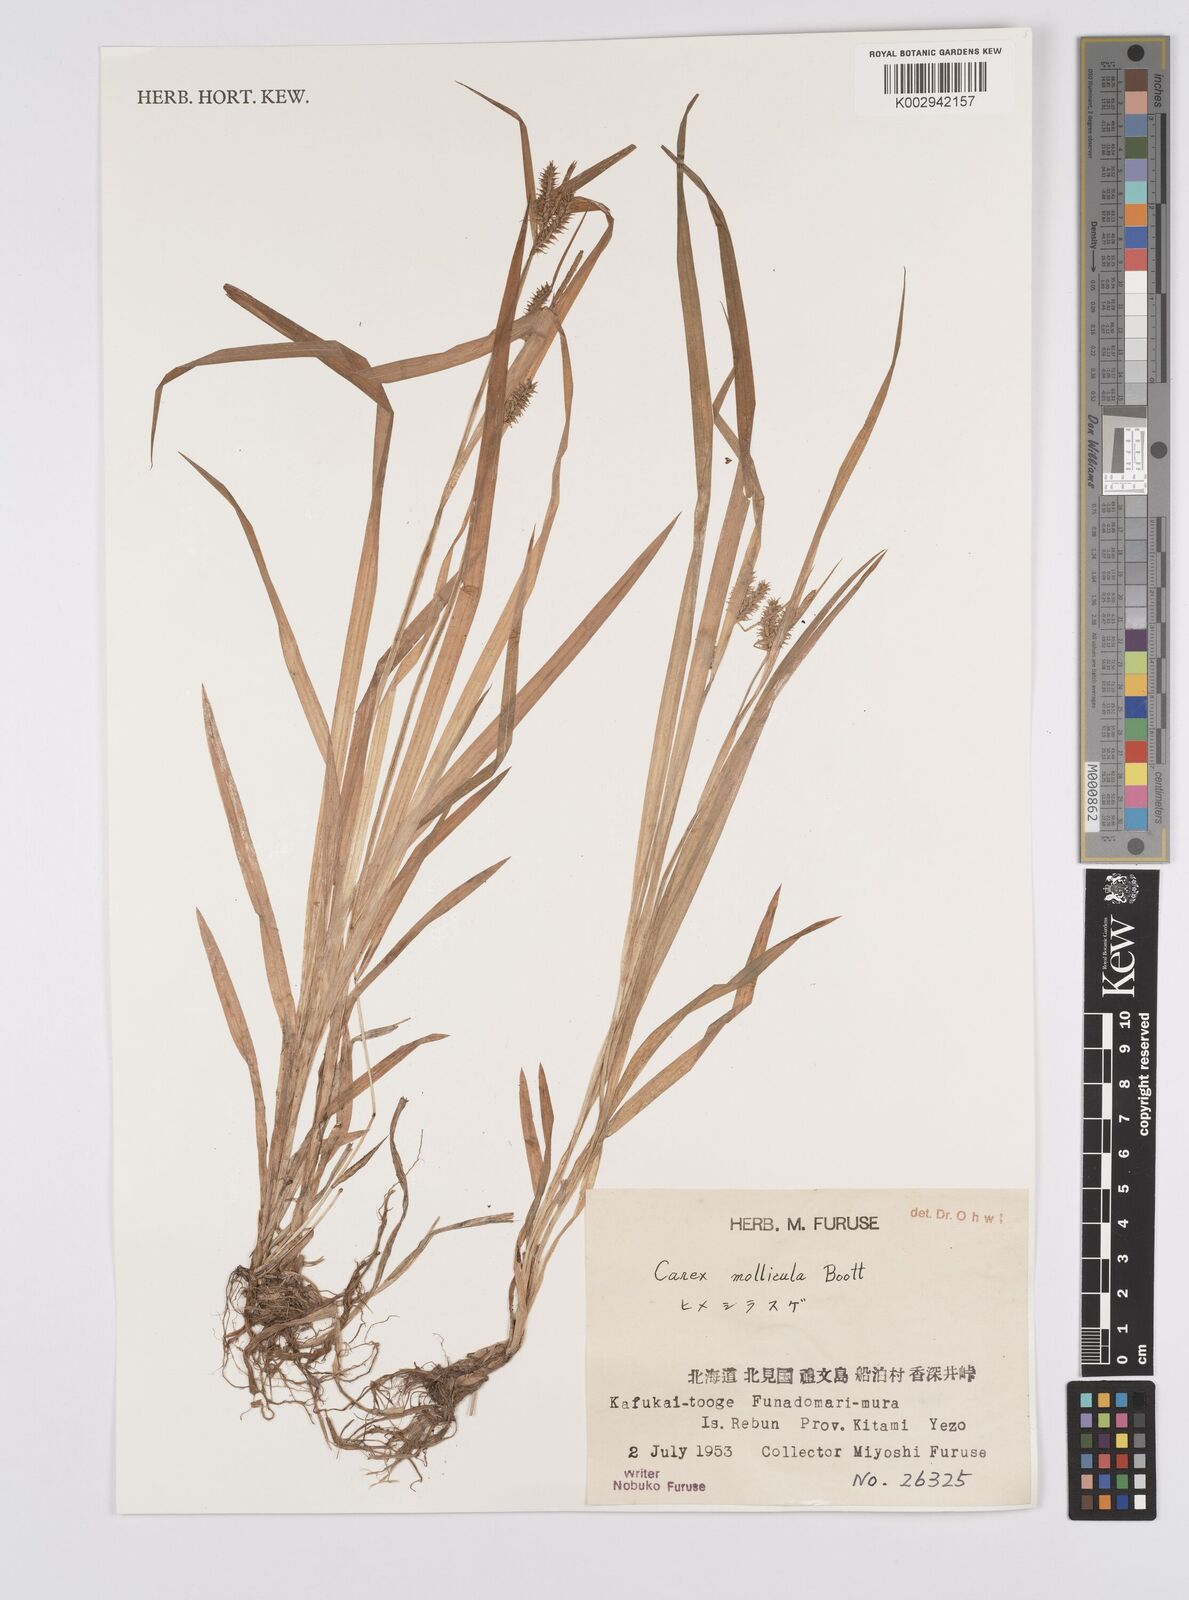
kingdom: Plantae
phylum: Tracheophyta
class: Liliopsida
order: Poales
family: Cyperaceae
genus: Carex
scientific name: Carex mollicula
